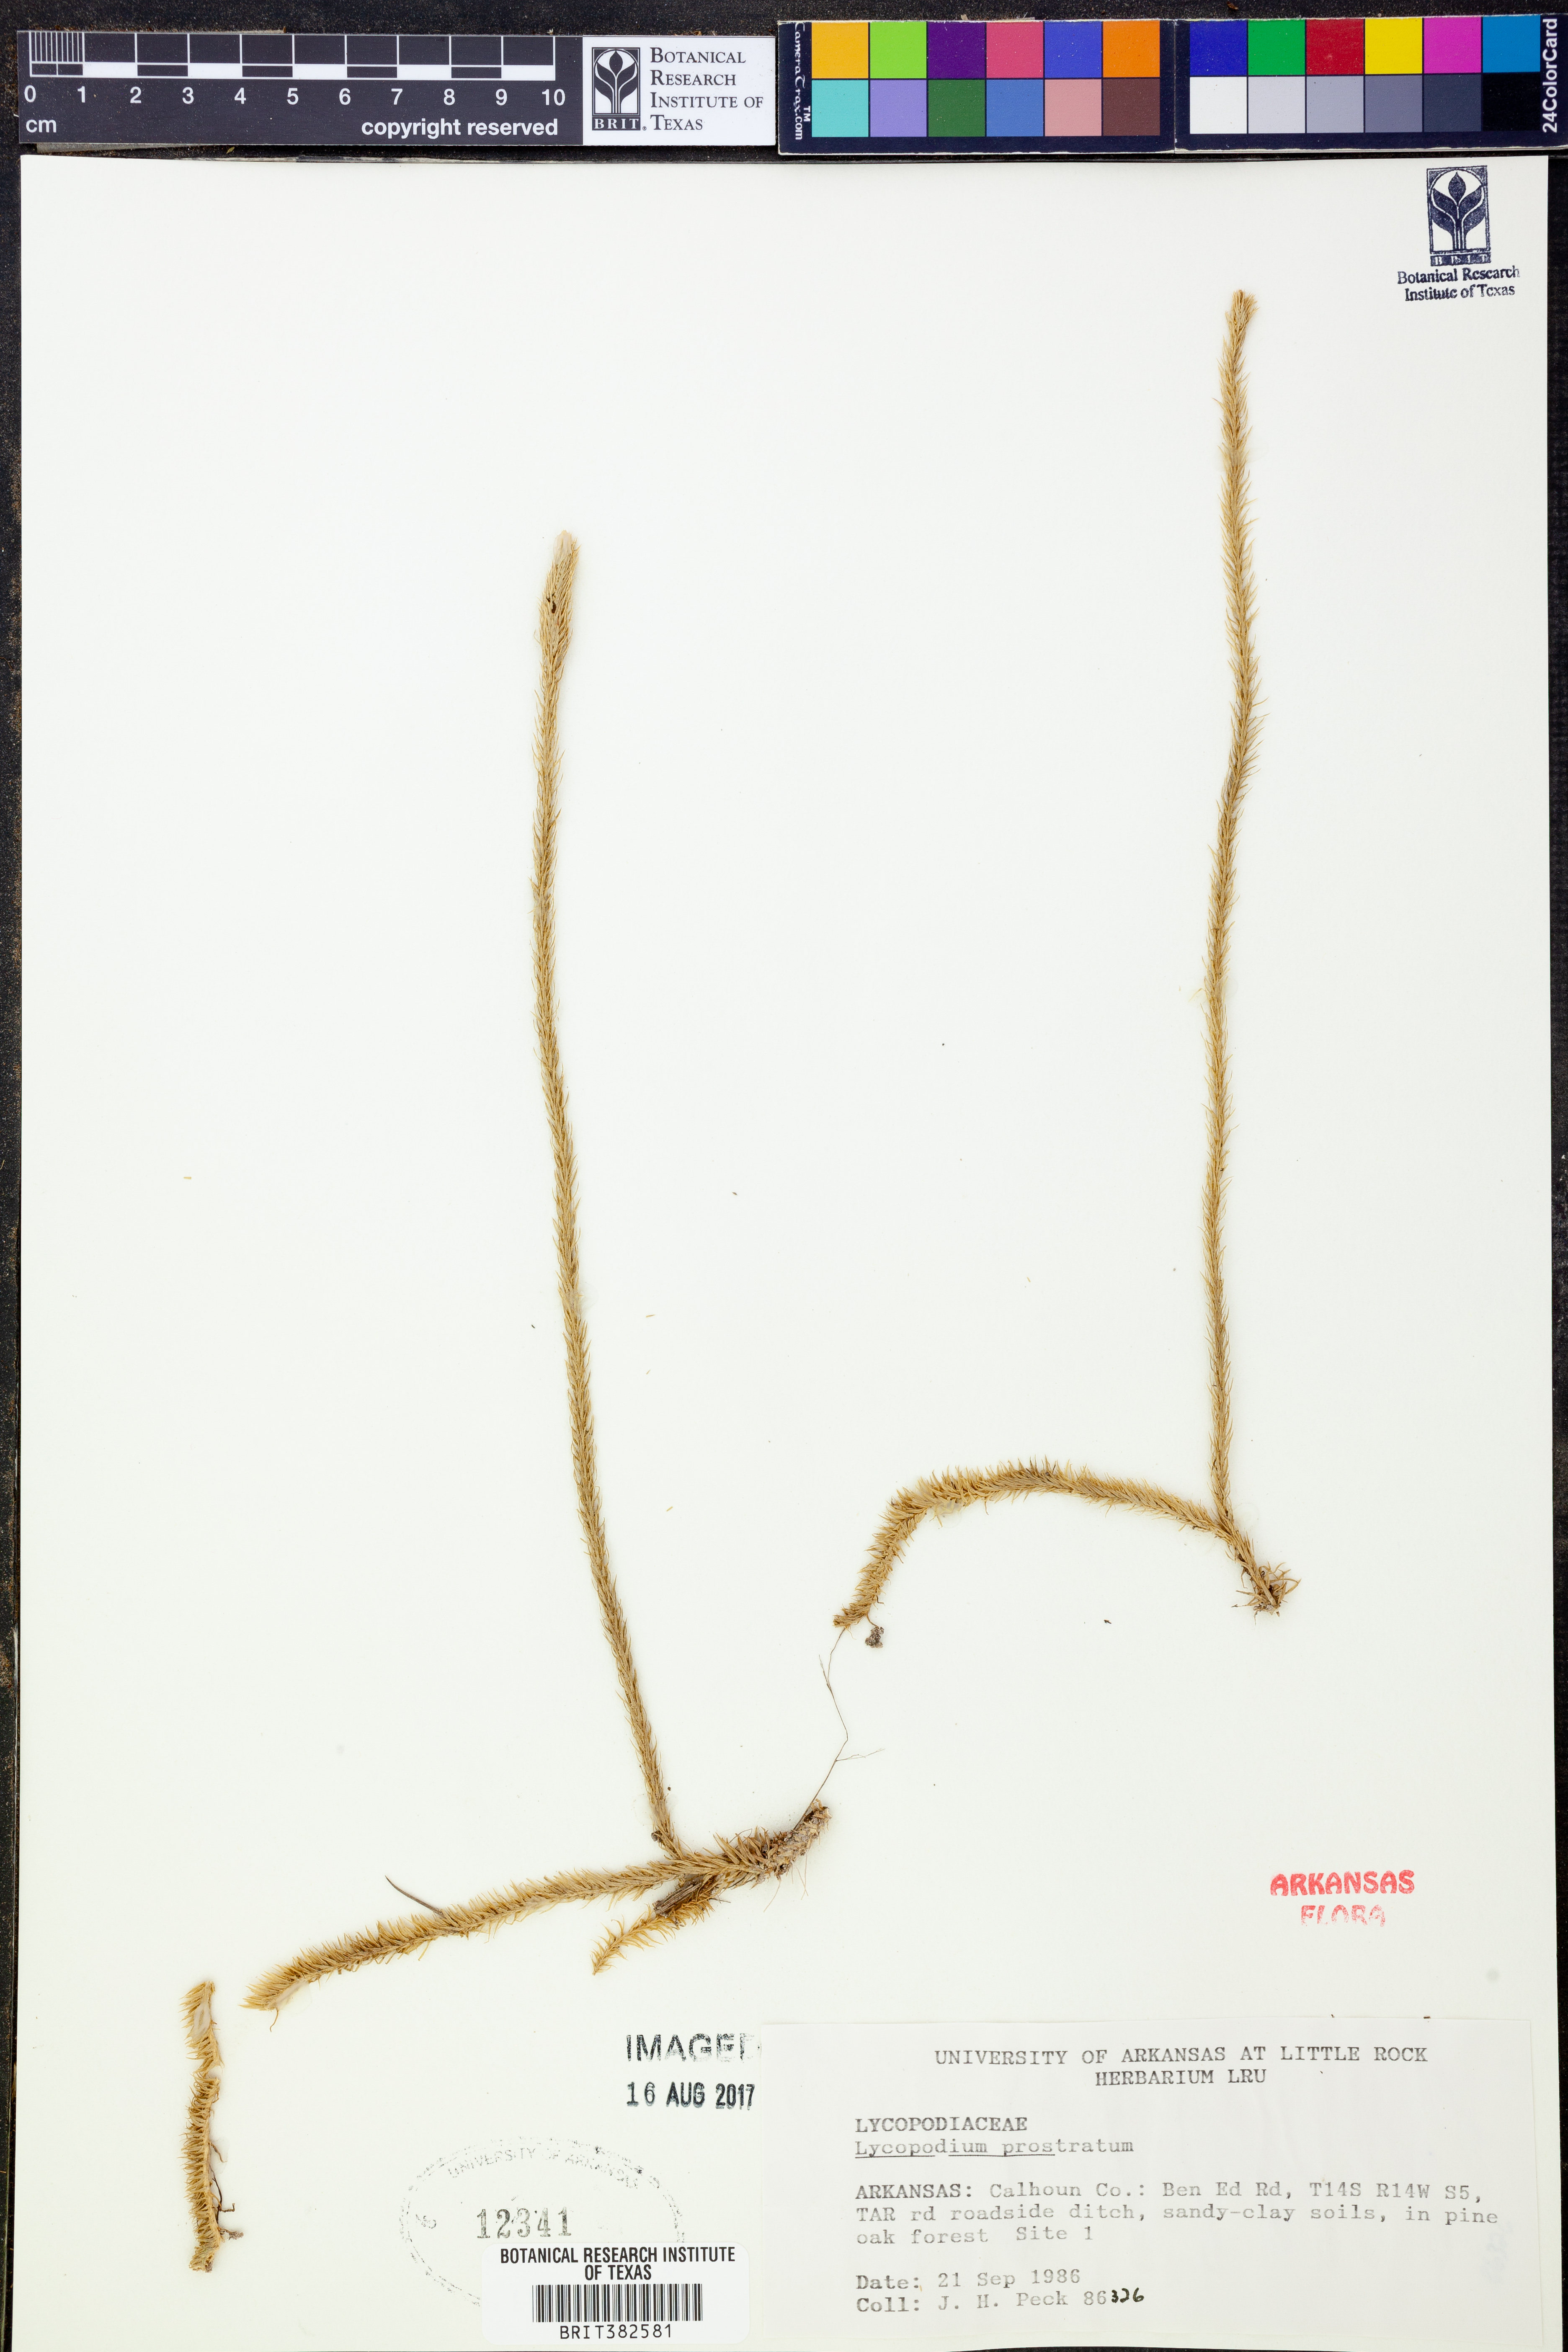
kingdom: Plantae
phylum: Tracheophyta
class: Lycopodiopsida
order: Lycopodiales
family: Lycopodiaceae
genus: Lycopodiella
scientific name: Lycopodiella prostrata
